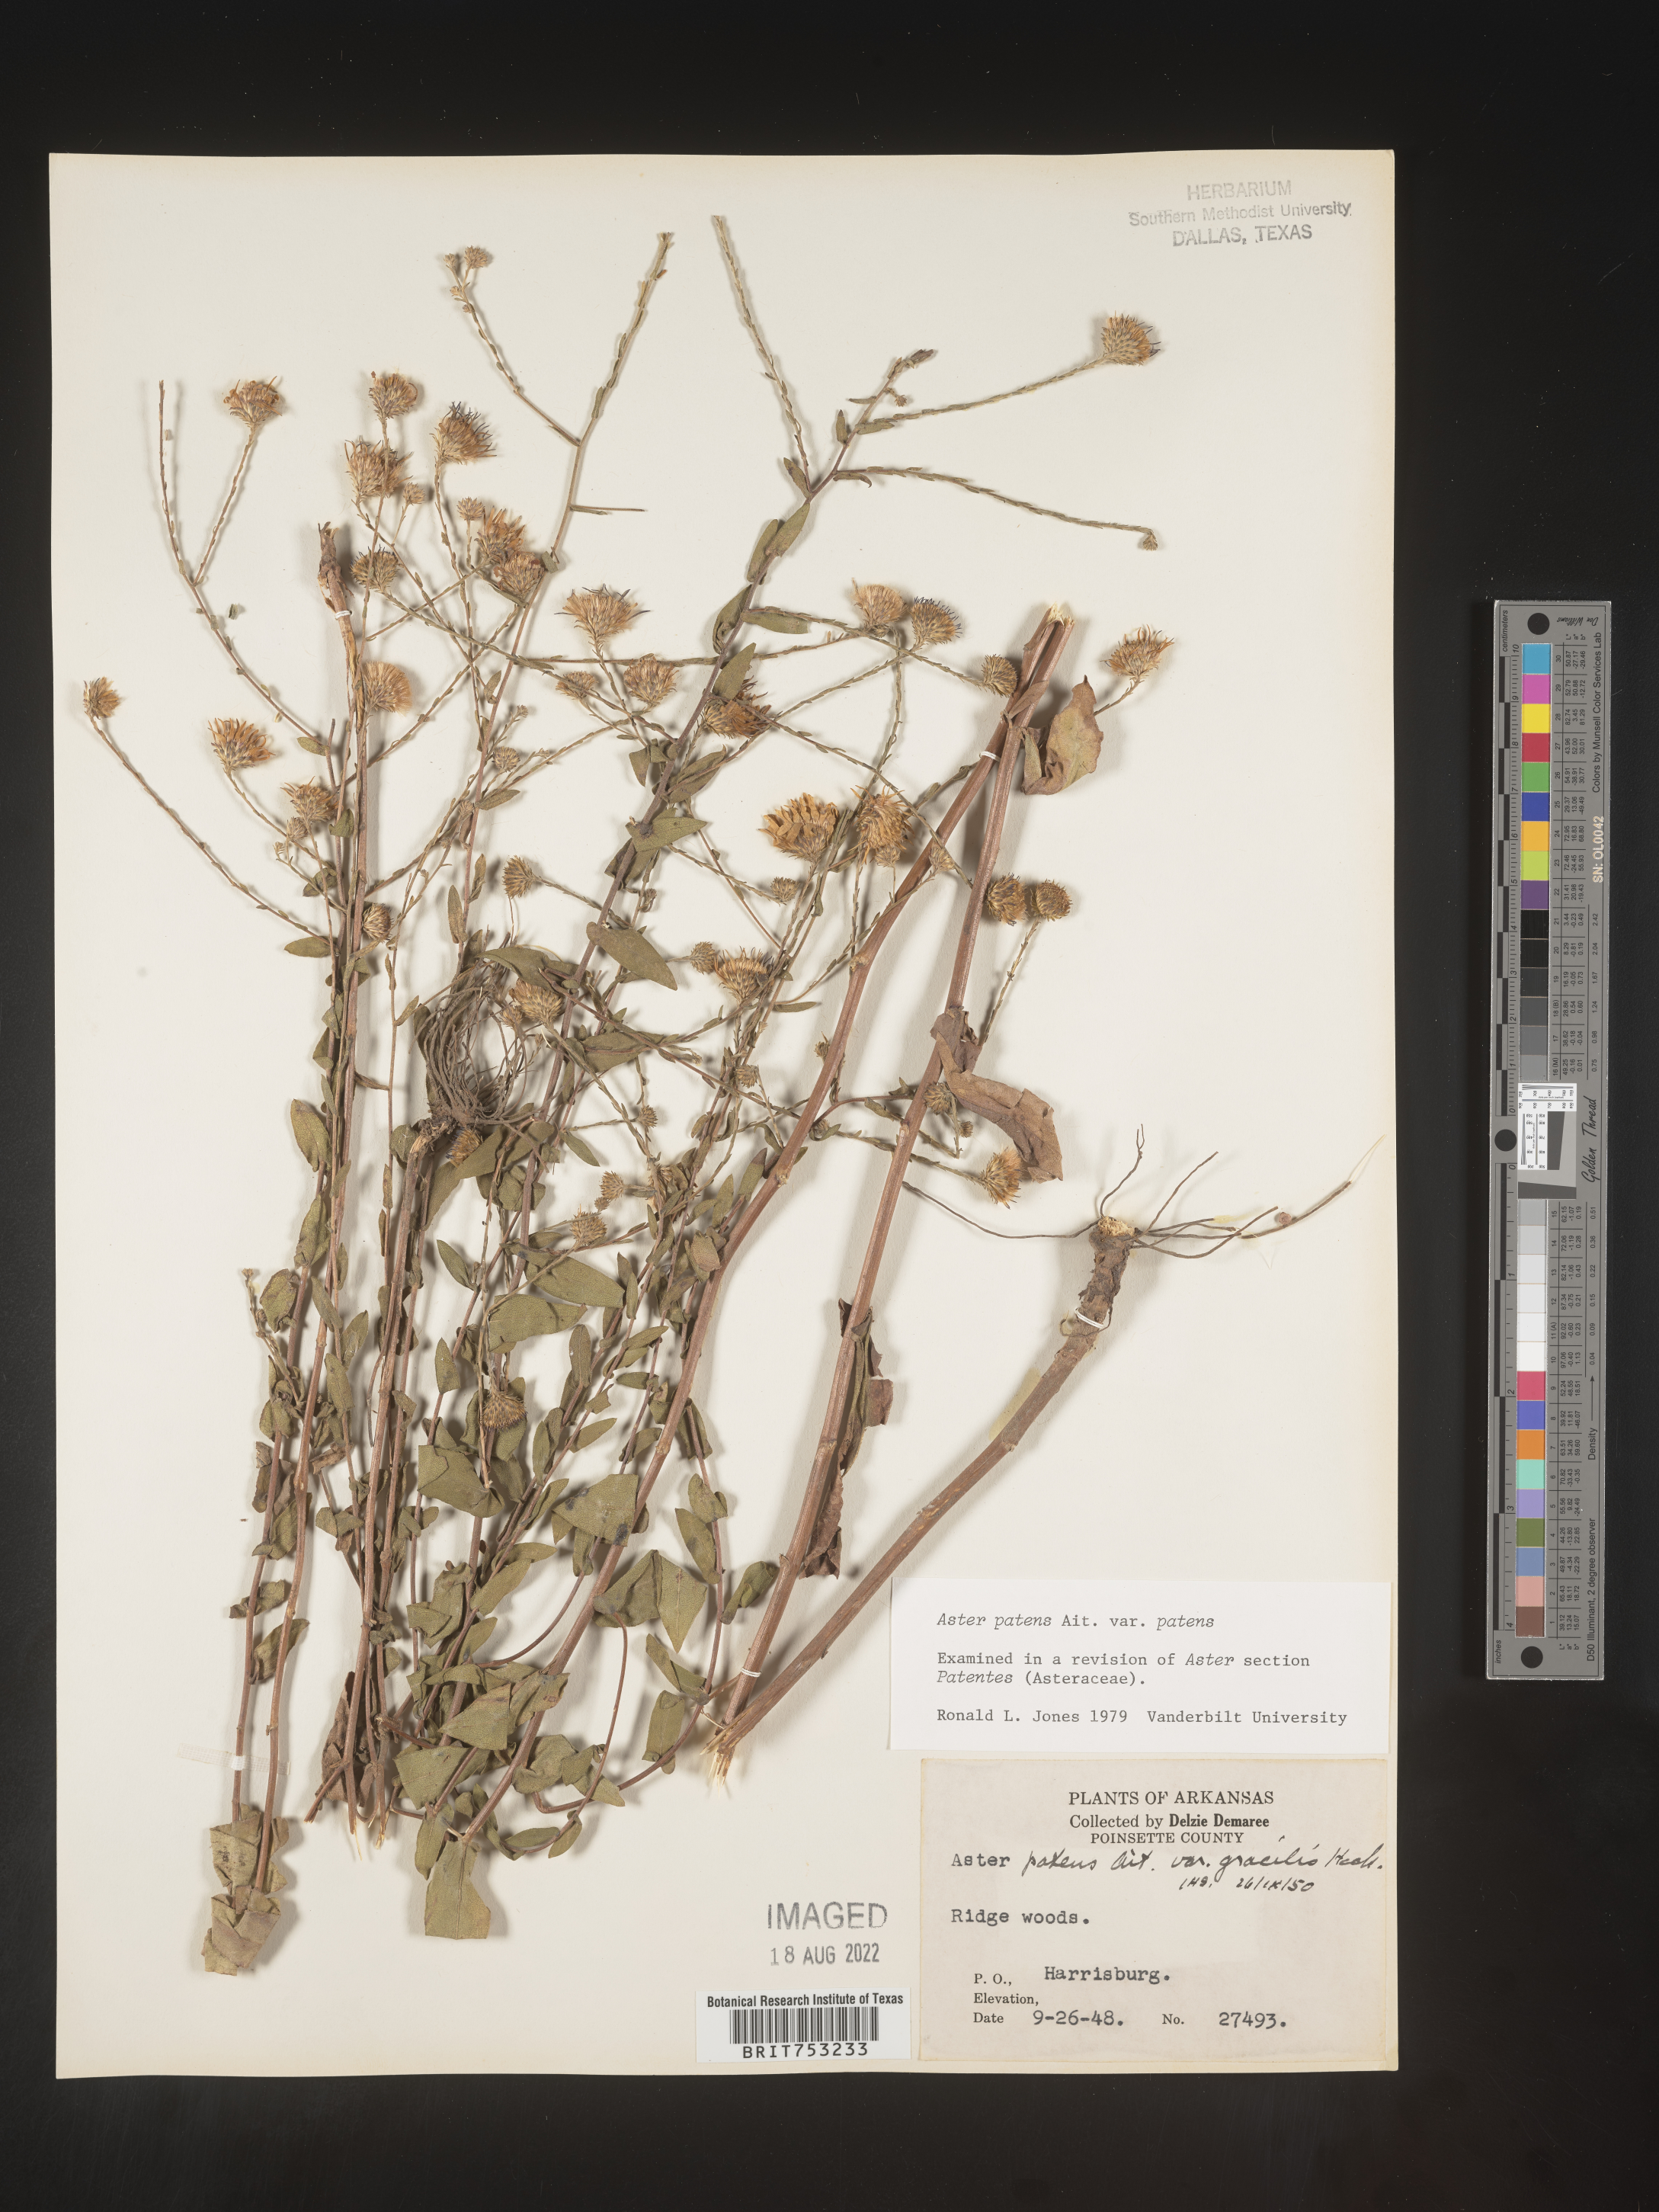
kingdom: Plantae
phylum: Tracheophyta
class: Magnoliopsida
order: Asterales
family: Asteraceae
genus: Symphyotrichum
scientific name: Symphyotrichum patens
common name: Late purple aster
